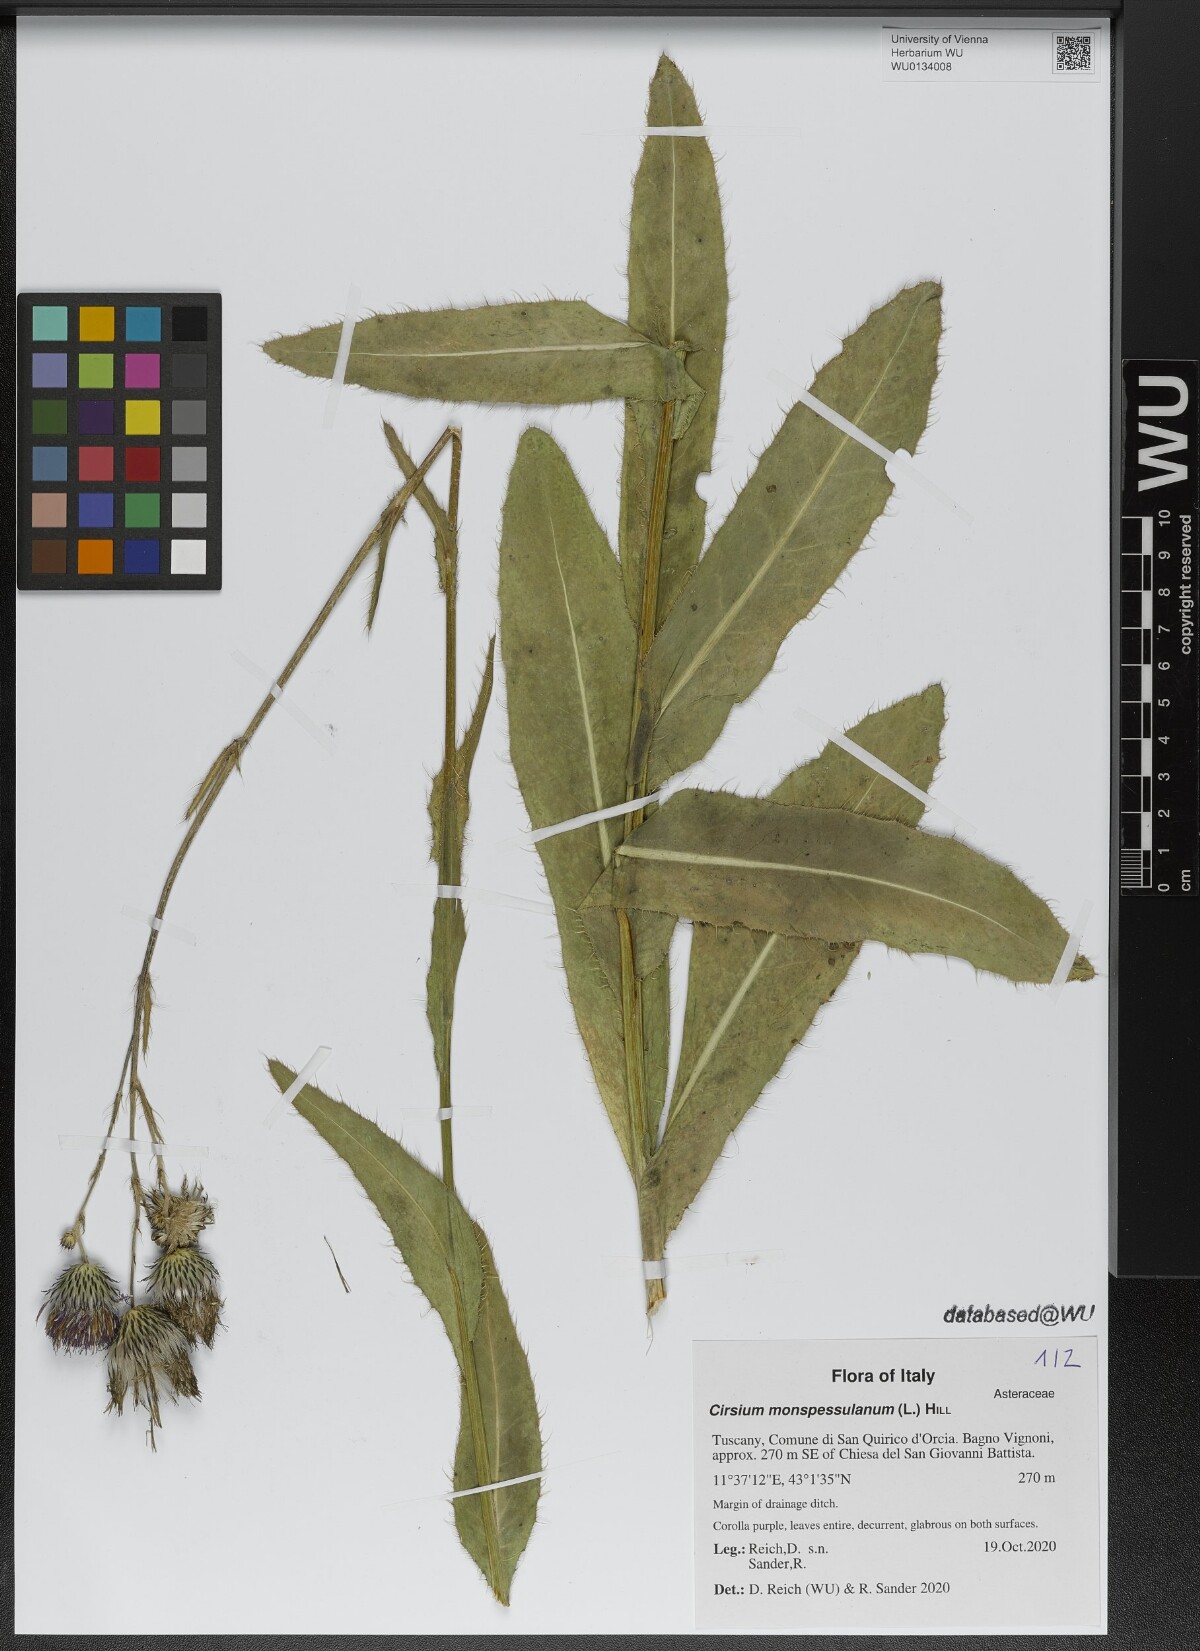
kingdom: Plantae
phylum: Tracheophyta
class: Magnoliopsida
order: Asterales
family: Asteraceae
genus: Cirsium
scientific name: Cirsium monspessulanum
